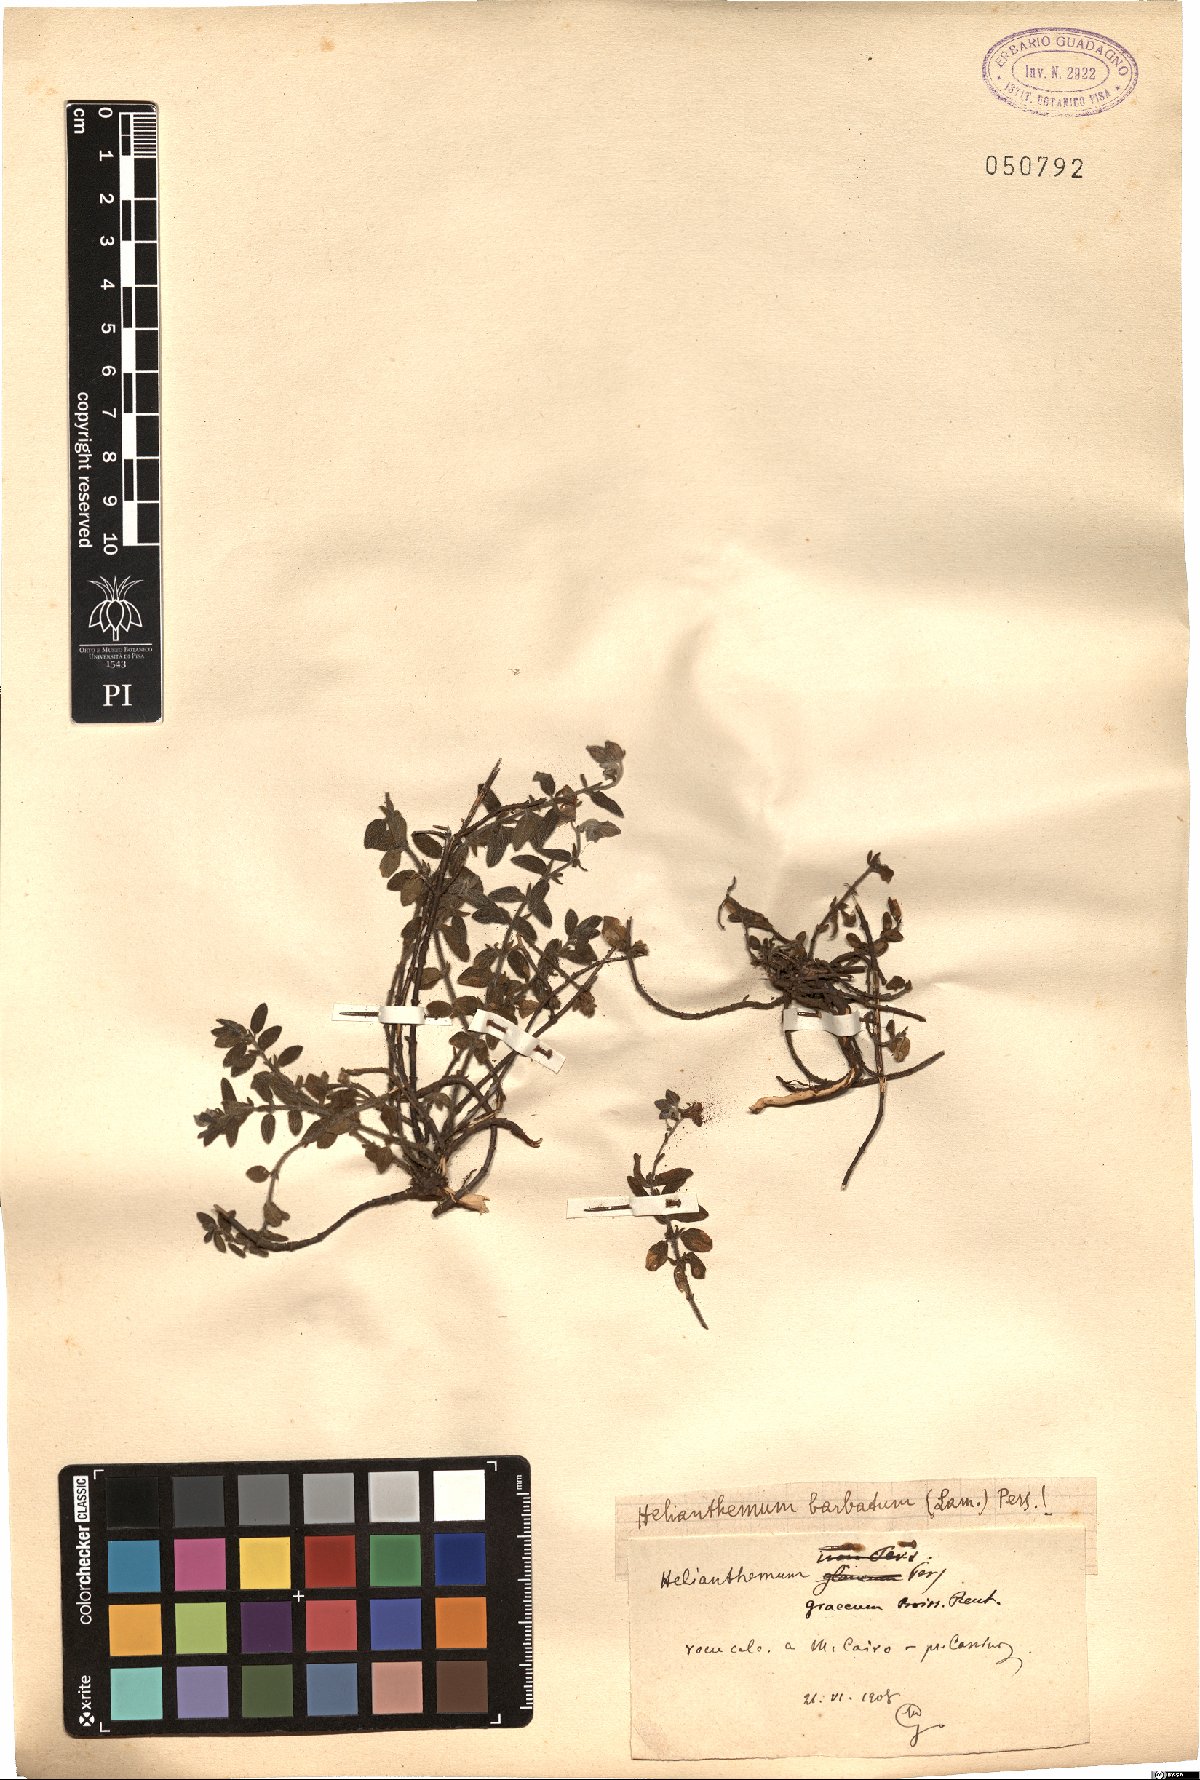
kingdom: Plantae
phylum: Tracheophyta
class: Magnoliopsida
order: Malvales
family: Cistaceae
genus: Helianthemum
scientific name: Helianthemum nummularium
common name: Common rock-rose
